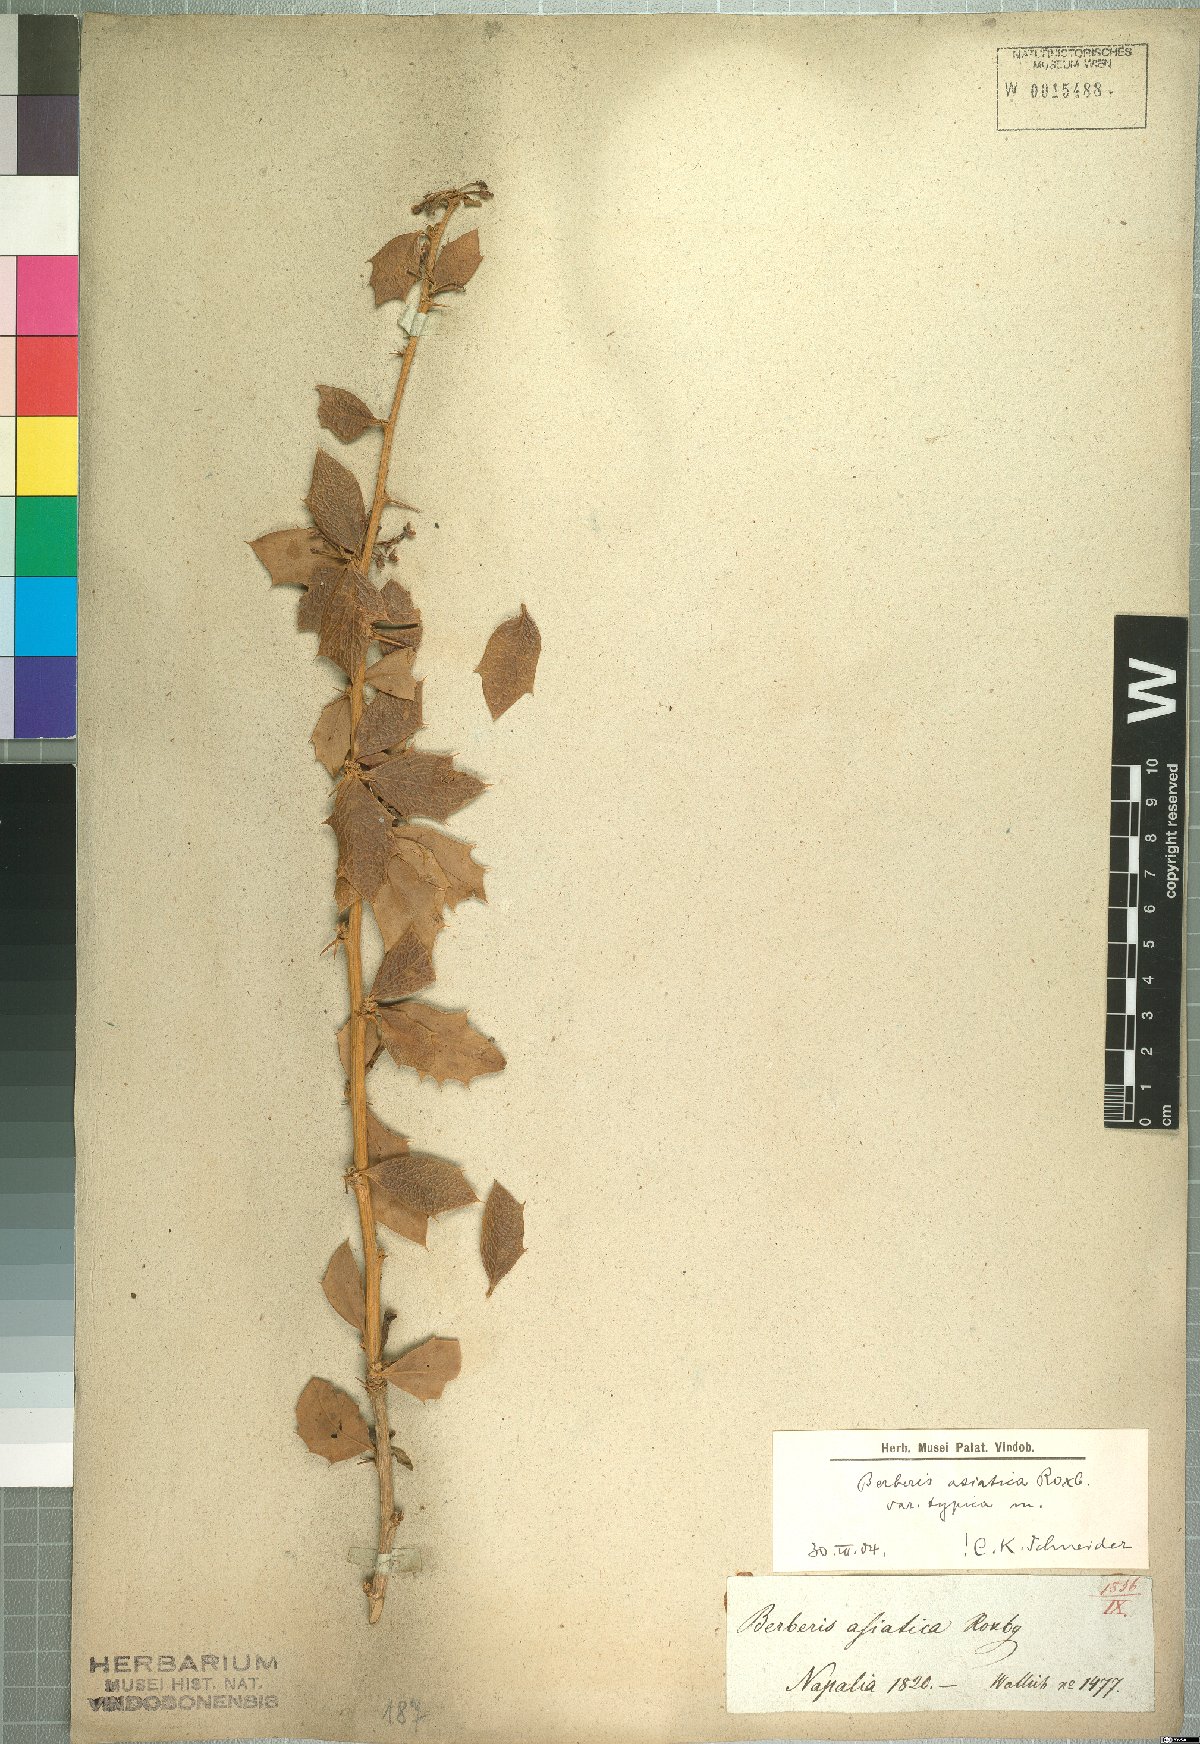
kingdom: Plantae
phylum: Tracheophyta
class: Magnoliopsida
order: Ranunculales
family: Berberidaceae
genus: Berberis
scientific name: Berberis asiatica
